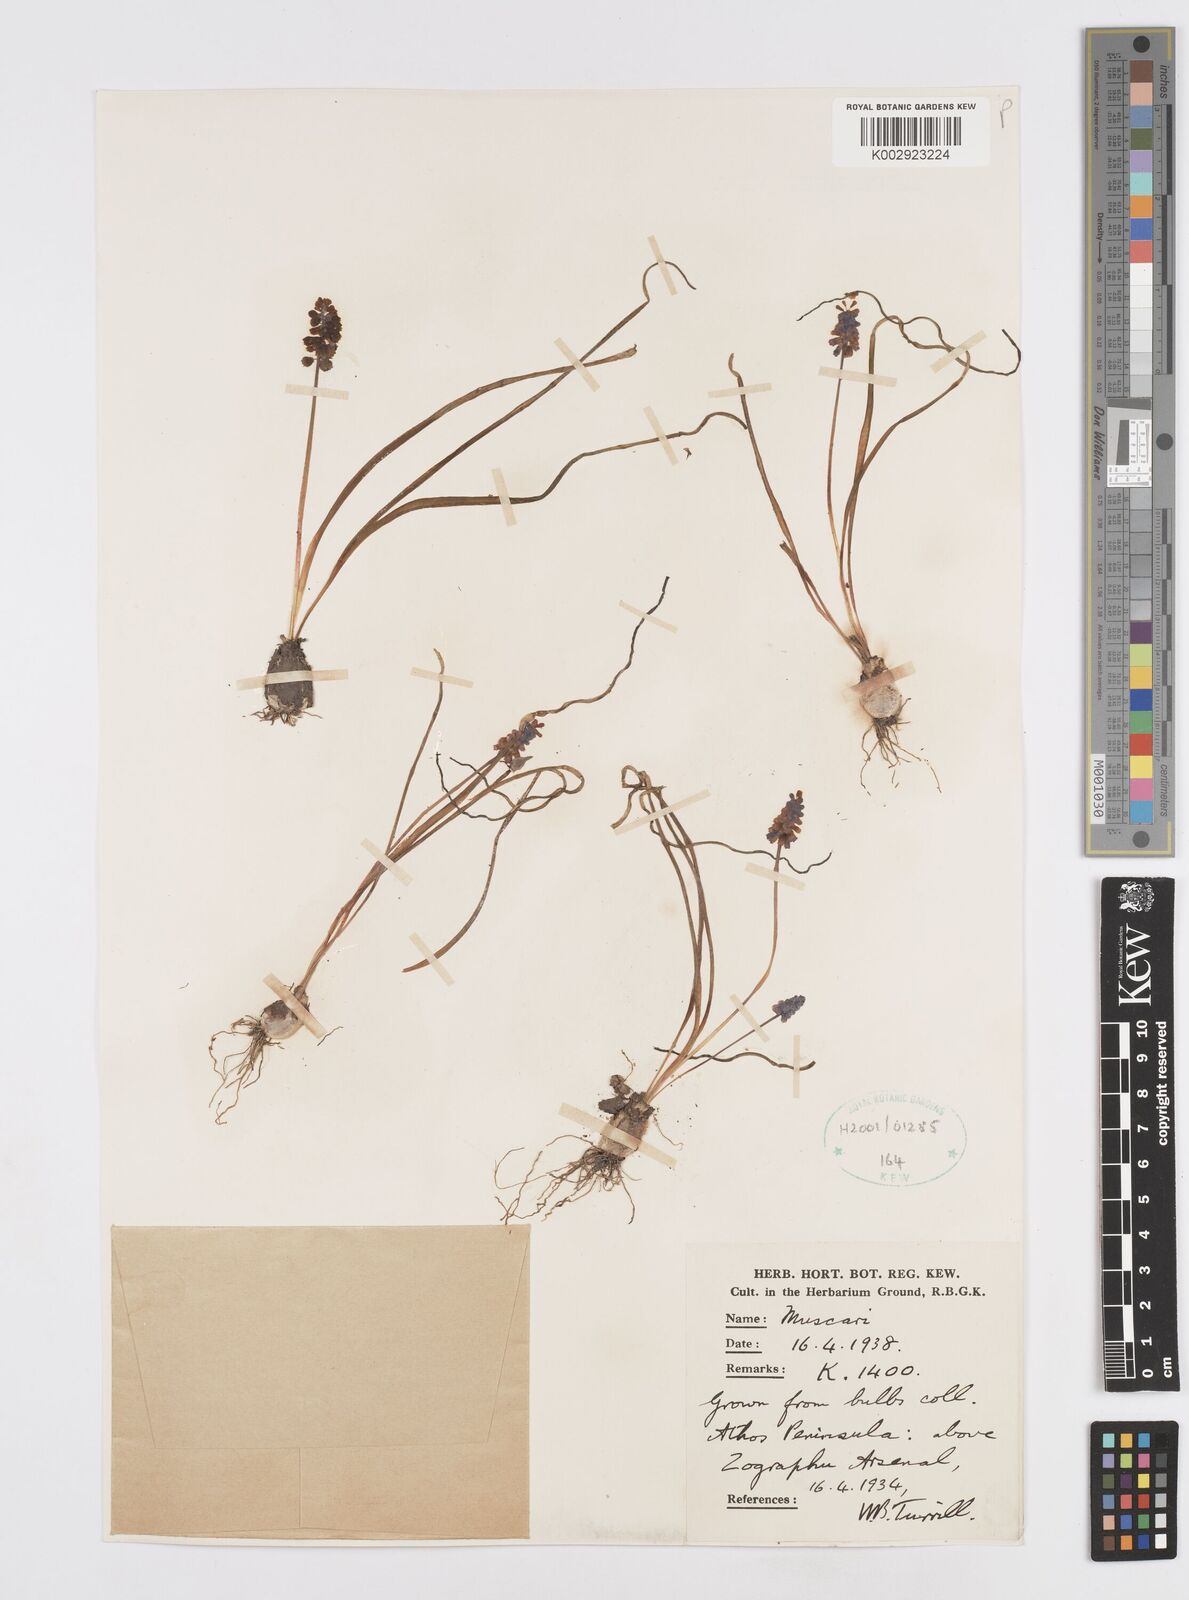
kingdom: Plantae
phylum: Tracheophyta
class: Liliopsida
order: Asparagales
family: Asparagaceae
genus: Muscari
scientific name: Muscari
